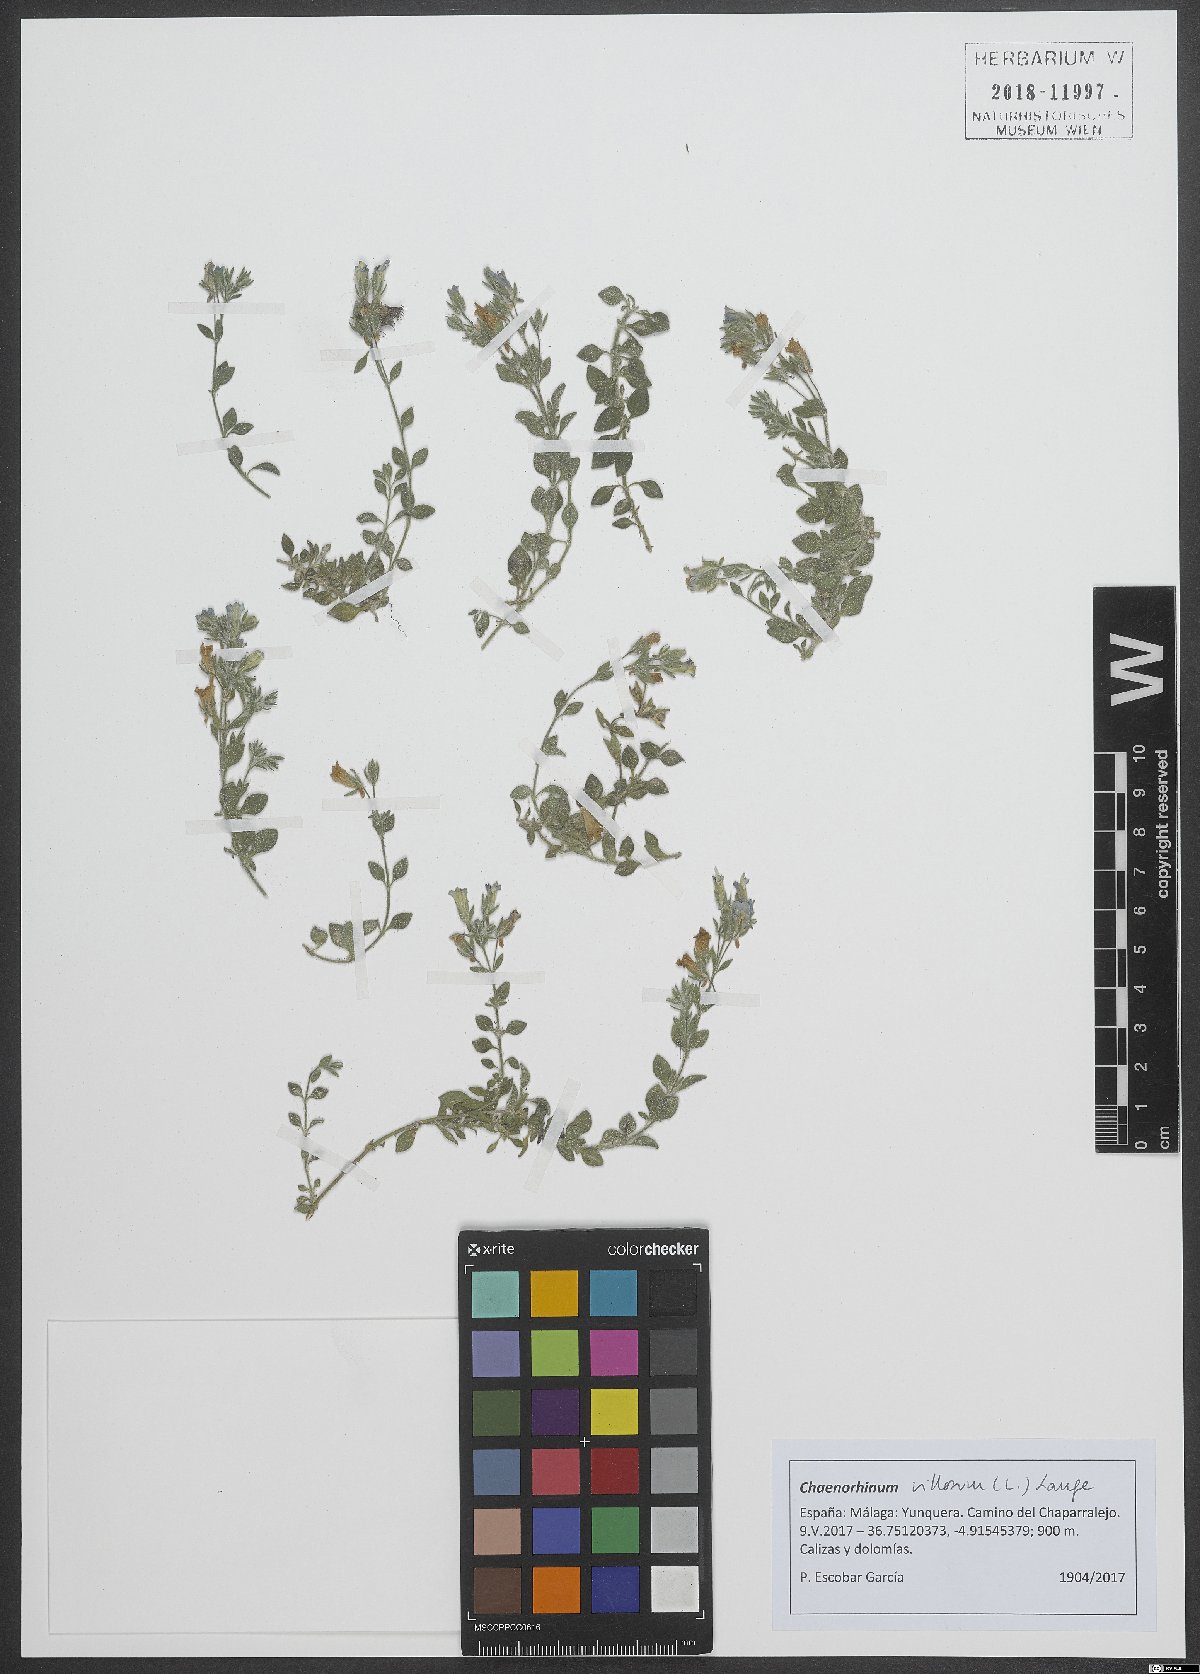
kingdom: Plantae
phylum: Tracheophyta
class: Magnoliopsida
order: Lamiales
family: Plantaginaceae
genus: Chaenorhinum
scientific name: Chaenorhinum villosum
